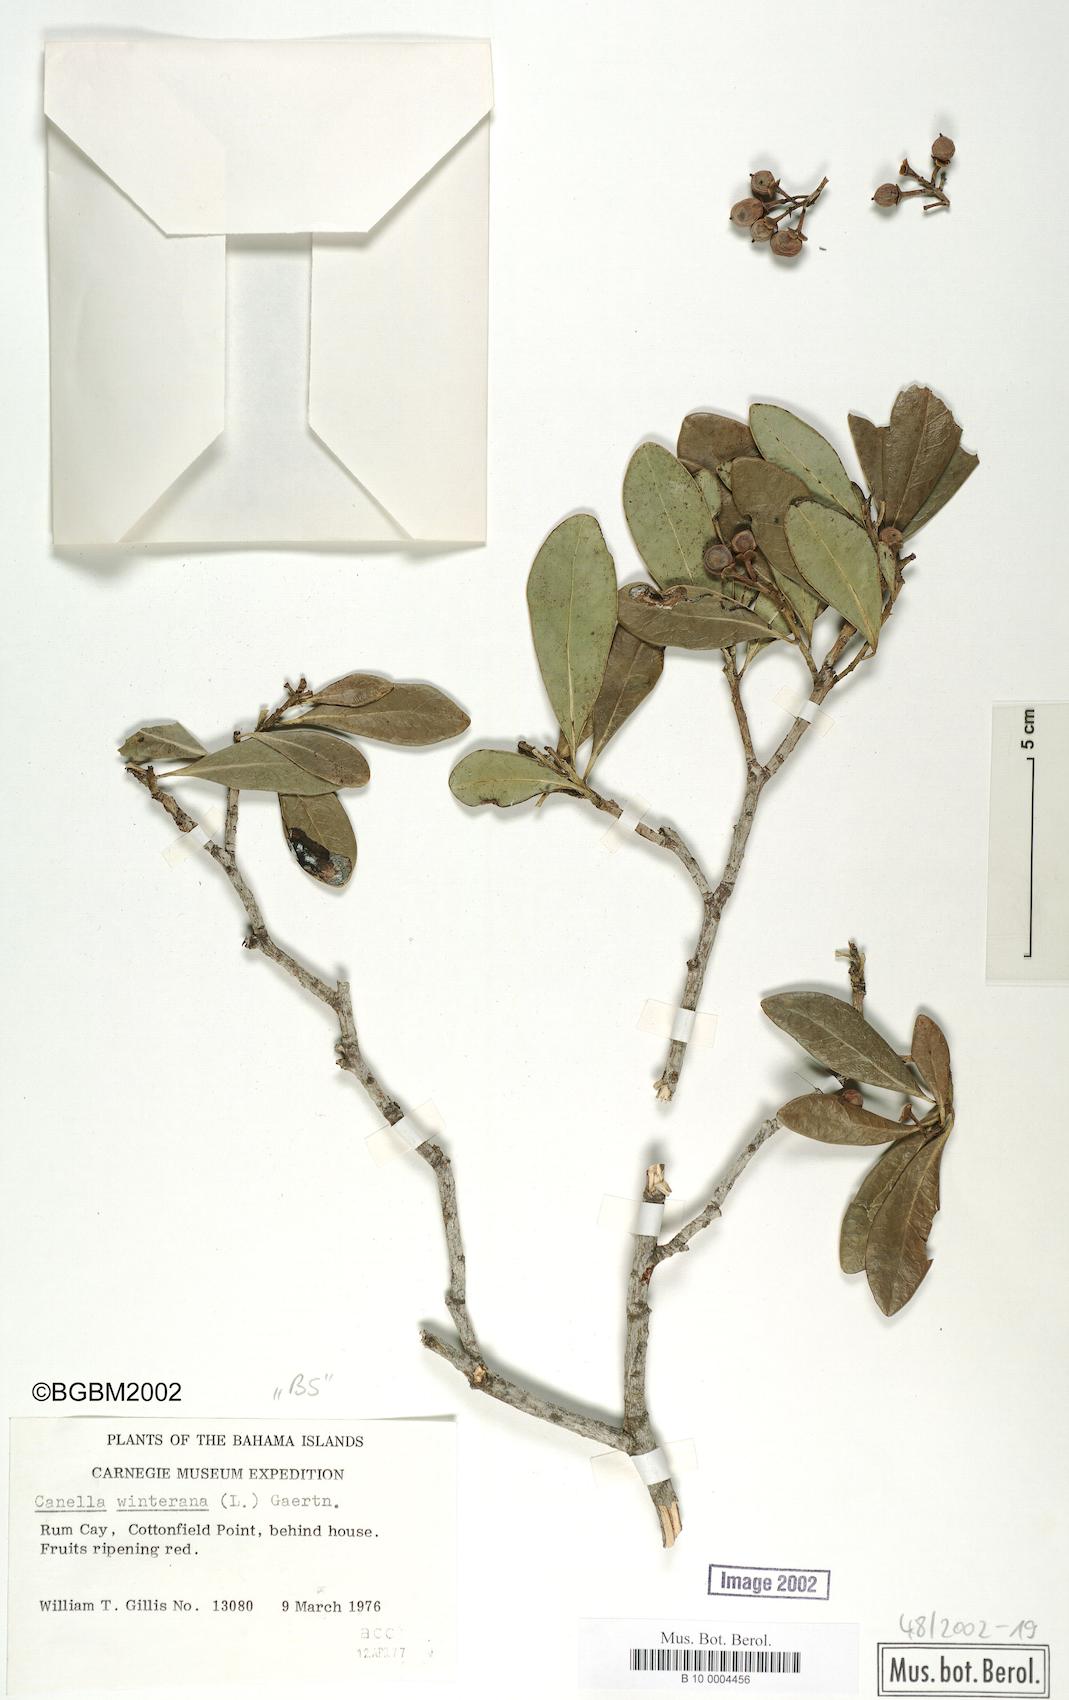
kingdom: Plantae
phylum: Tracheophyta
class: Magnoliopsida
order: Canellales
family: Canellaceae
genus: Canella
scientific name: Canella winterana
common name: Canella
